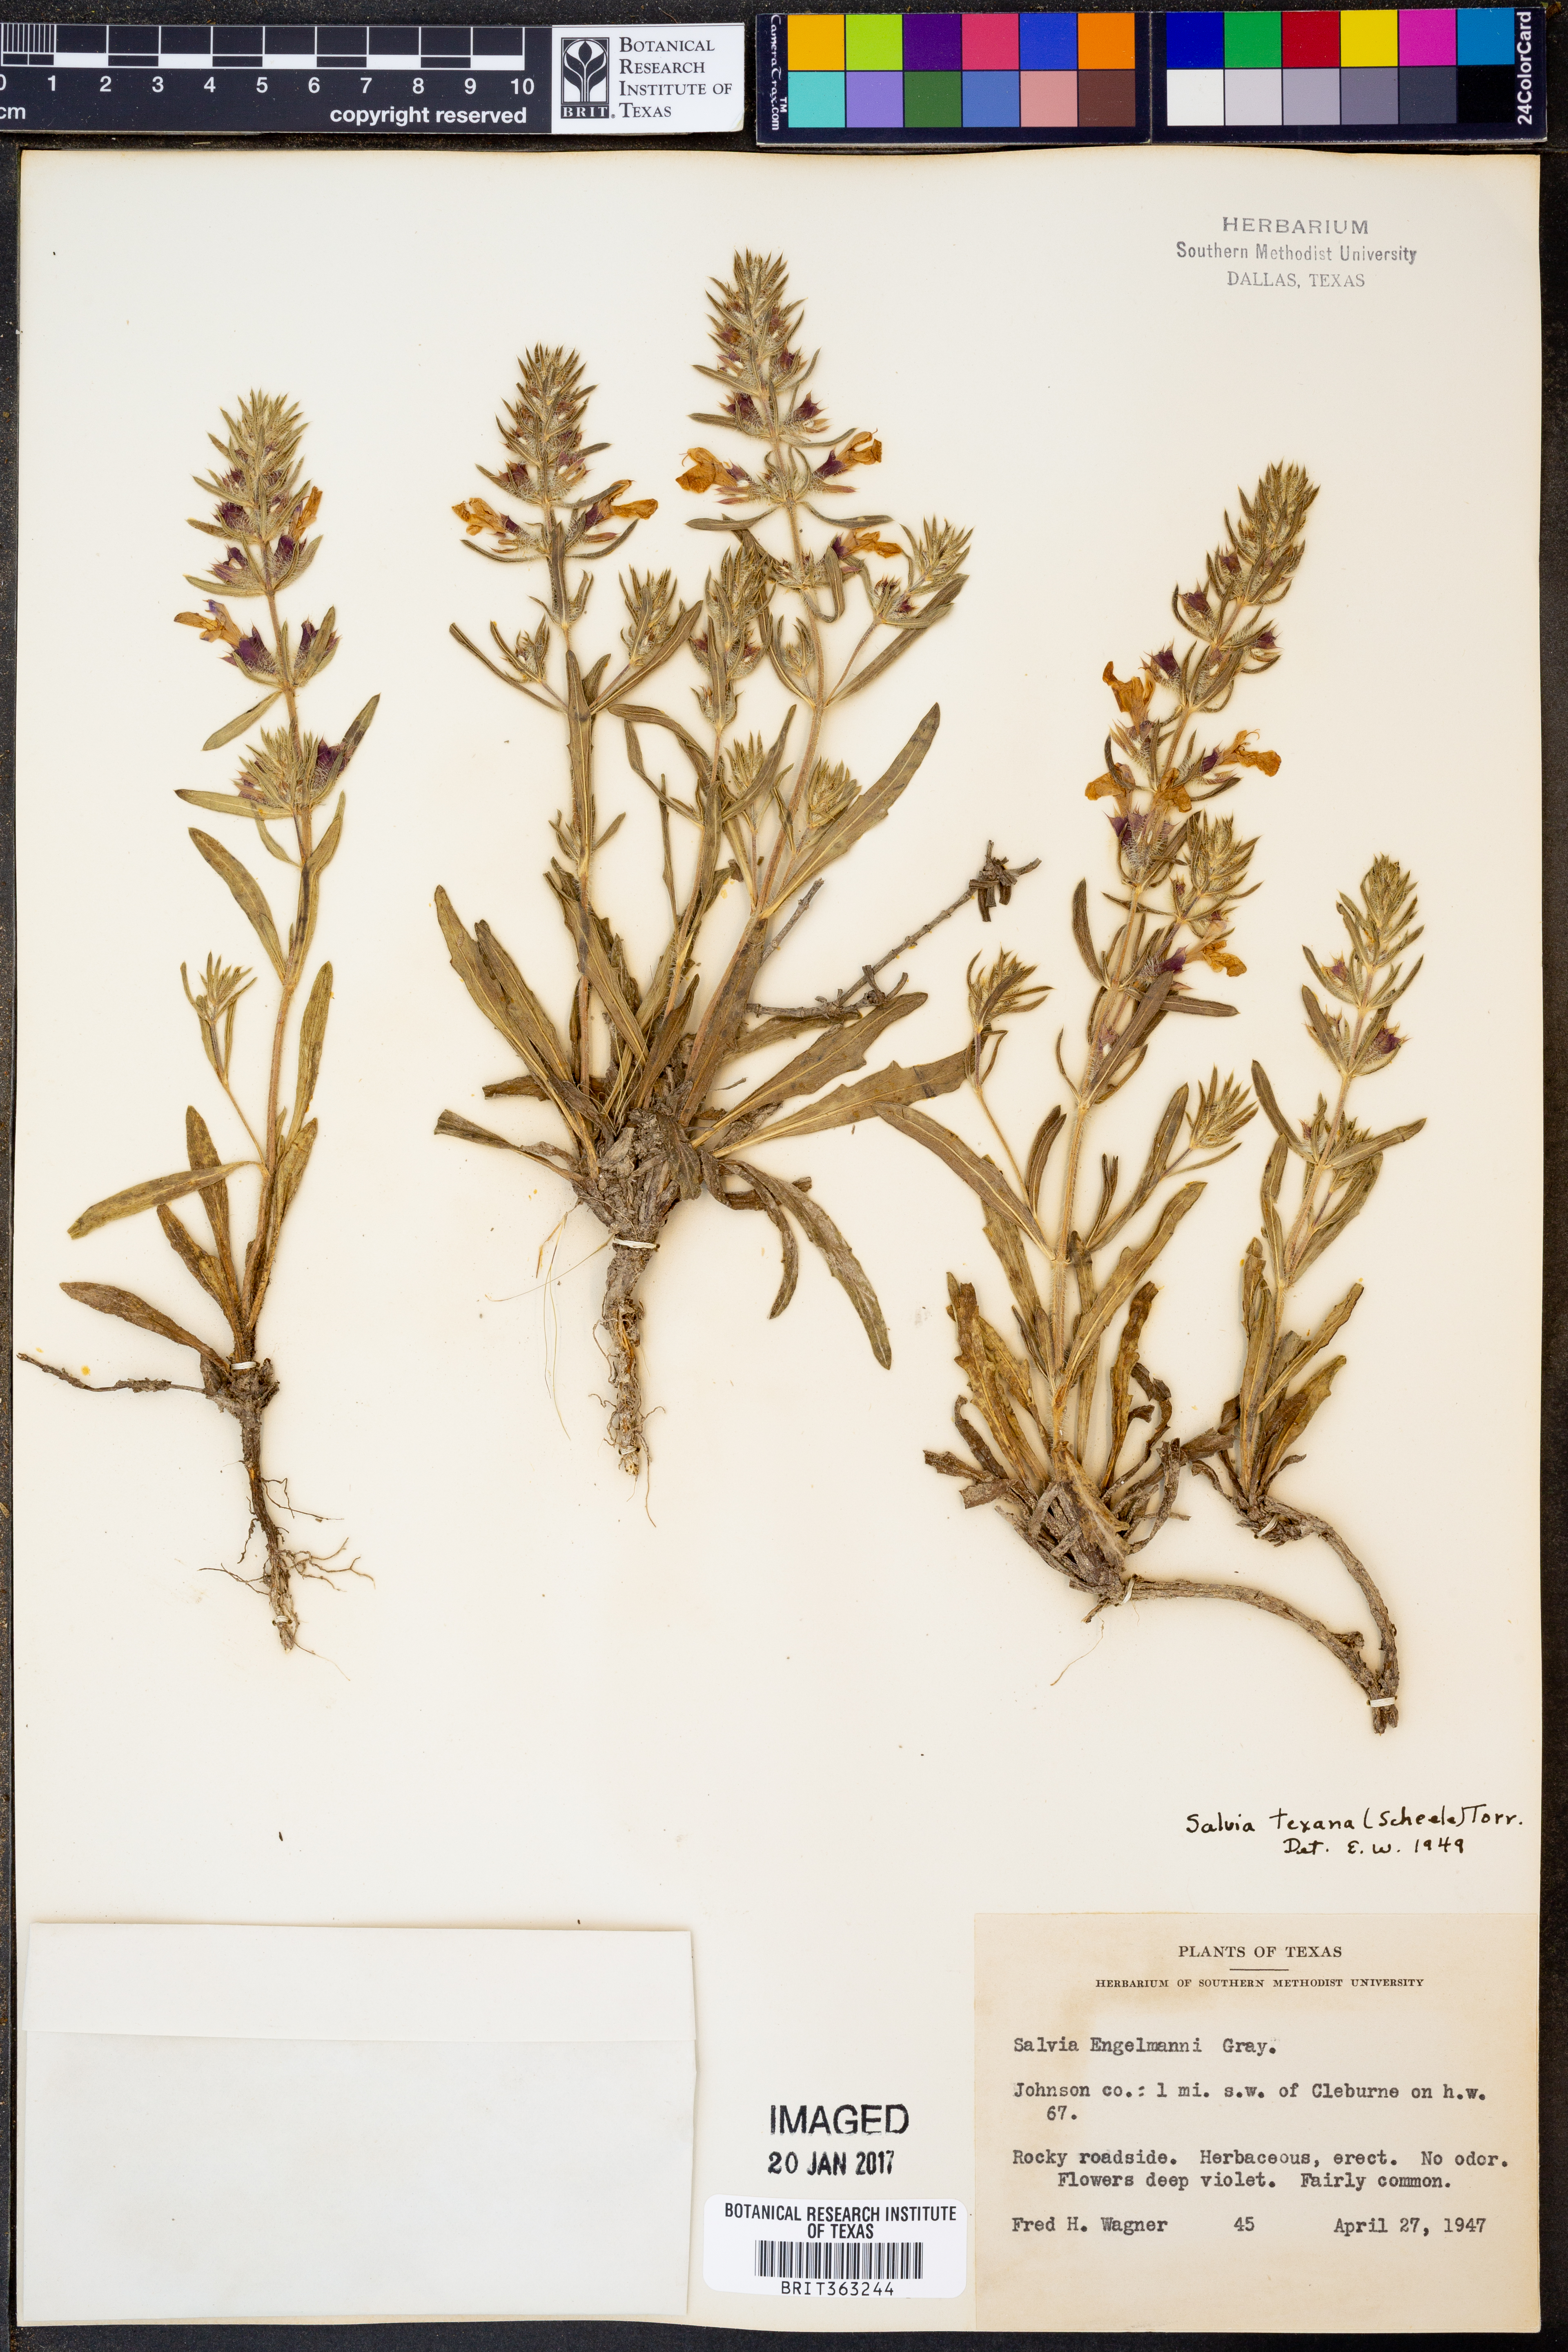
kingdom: Plantae
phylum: Tracheophyta
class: Magnoliopsida
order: Lamiales
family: Lamiaceae
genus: Salvia
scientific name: Salvia engelmannii
